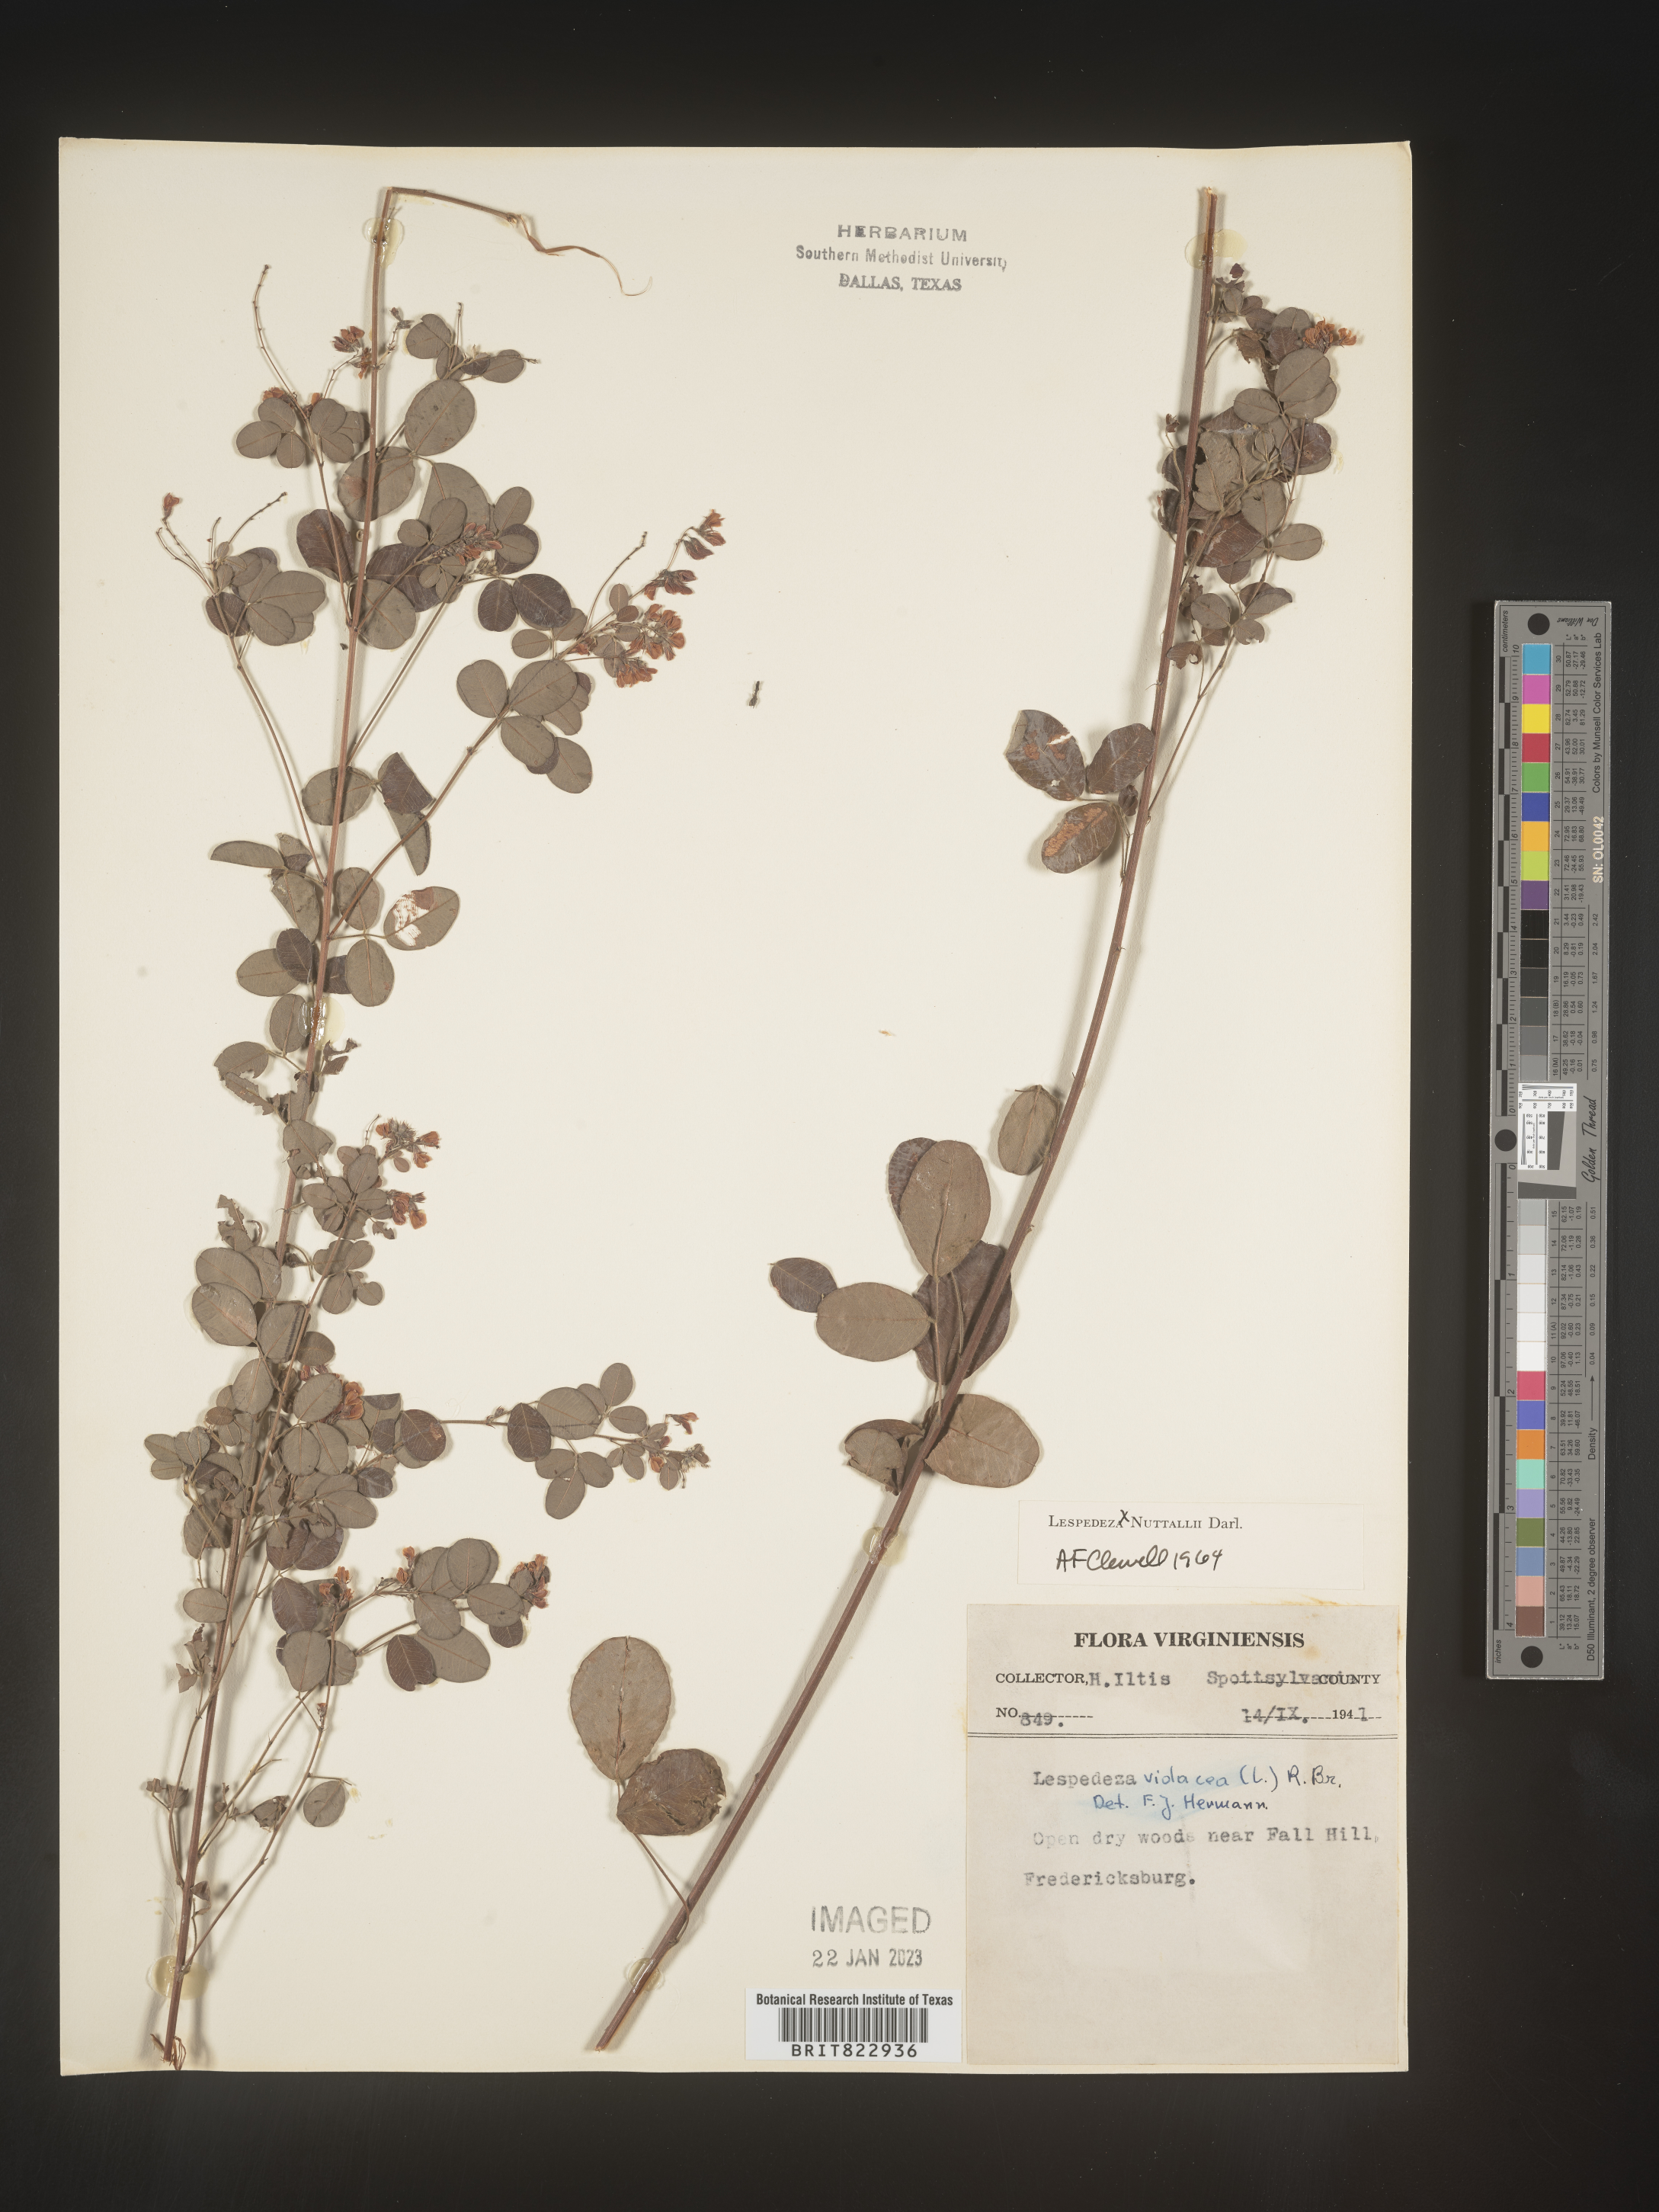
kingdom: Plantae
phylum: Tracheophyta
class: Magnoliopsida
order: Fabales
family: Fabaceae
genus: Lespedeza
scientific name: Lespedeza
